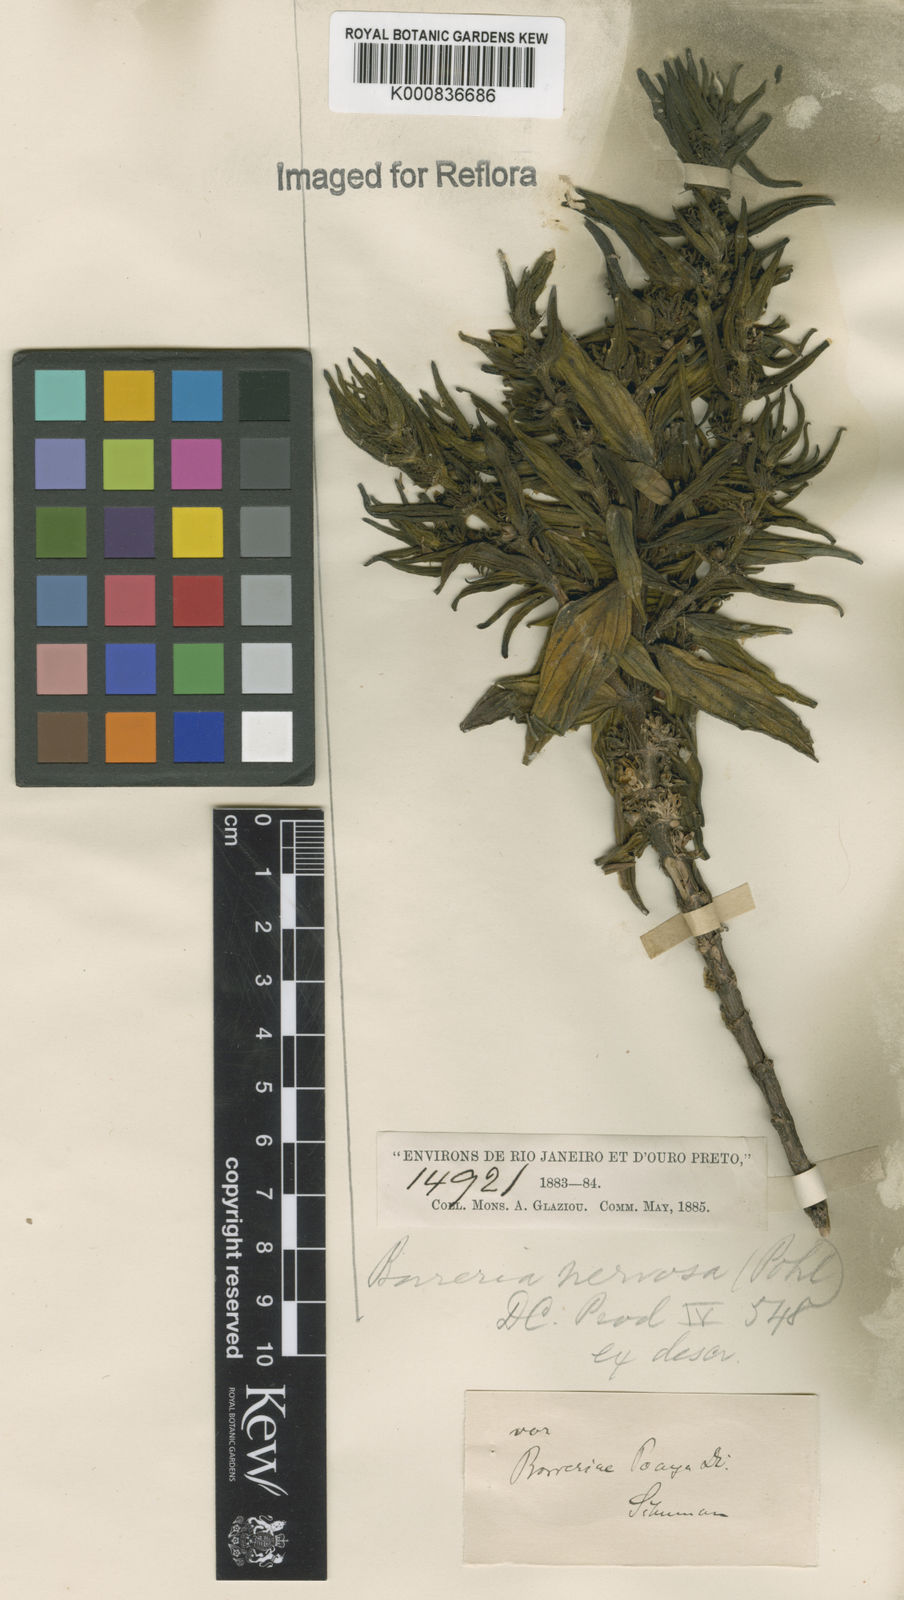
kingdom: Plantae
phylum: Tracheophyta
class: Magnoliopsida
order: Gentianales
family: Rubiaceae
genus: Spermacoce
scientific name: Spermacoce poaya
